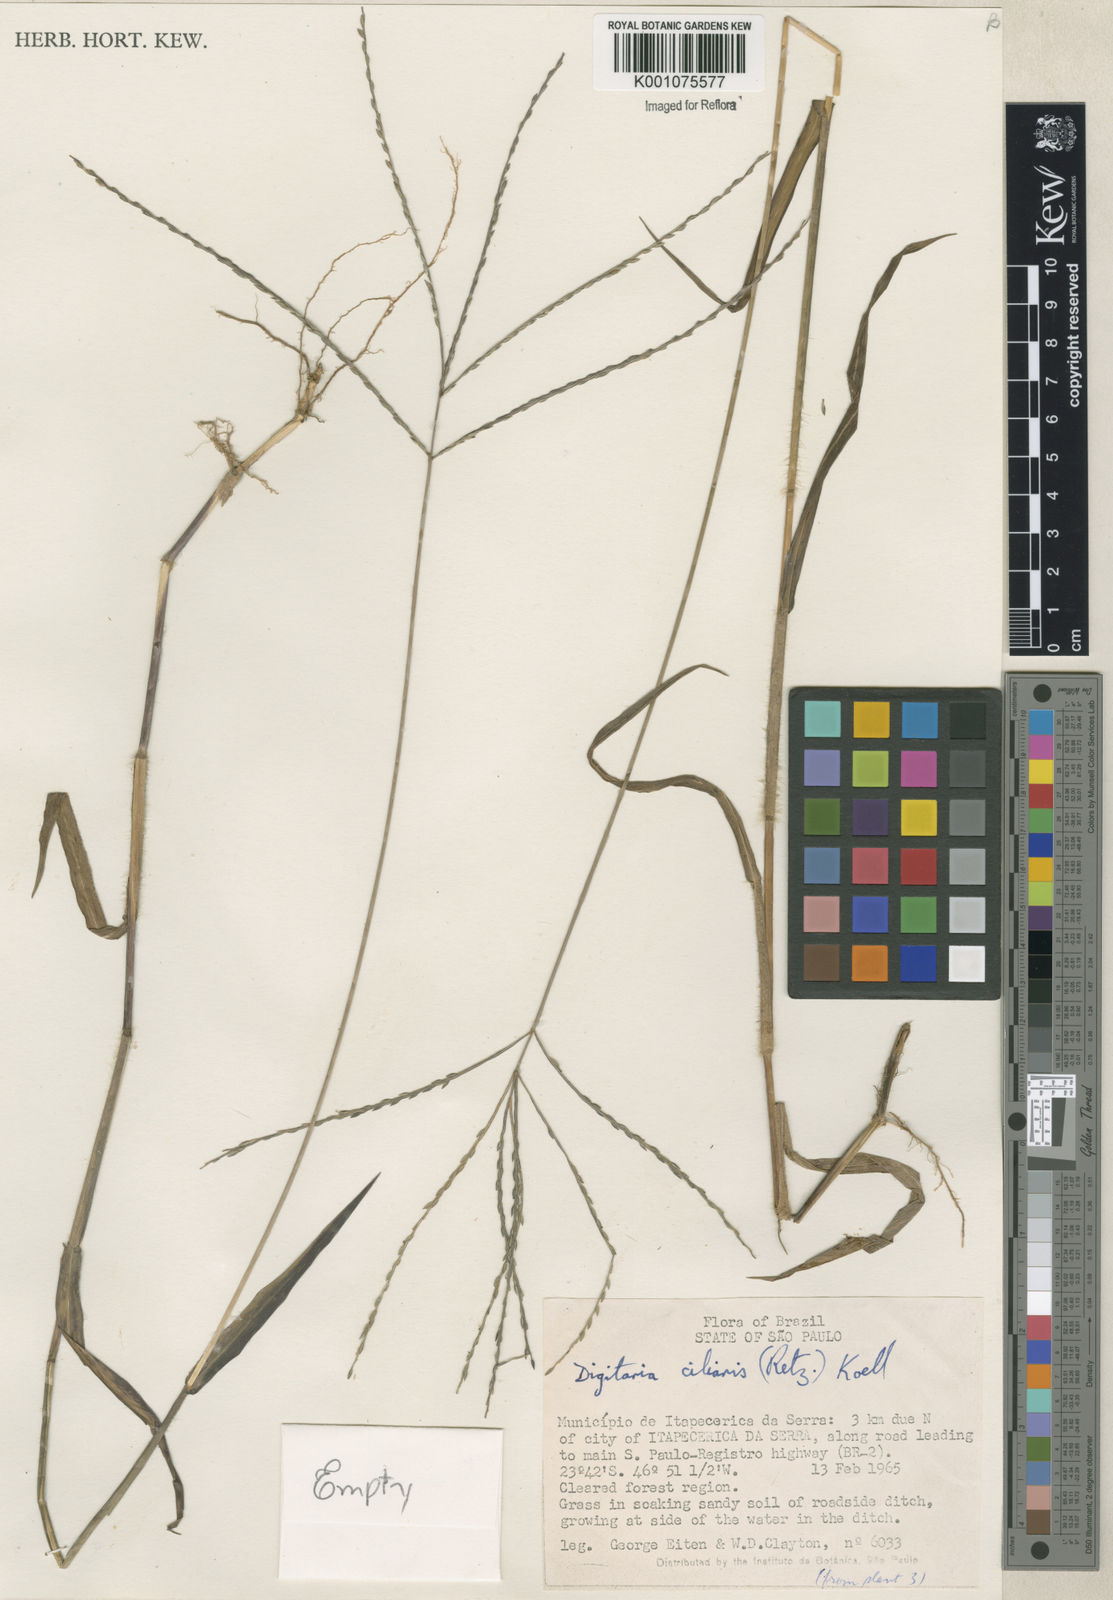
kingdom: Plantae
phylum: Tracheophyta
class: Liliopsida
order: Poales
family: Poaceae
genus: Digitaria
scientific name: Digitaria ciliaris
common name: Tropical finger-grass
